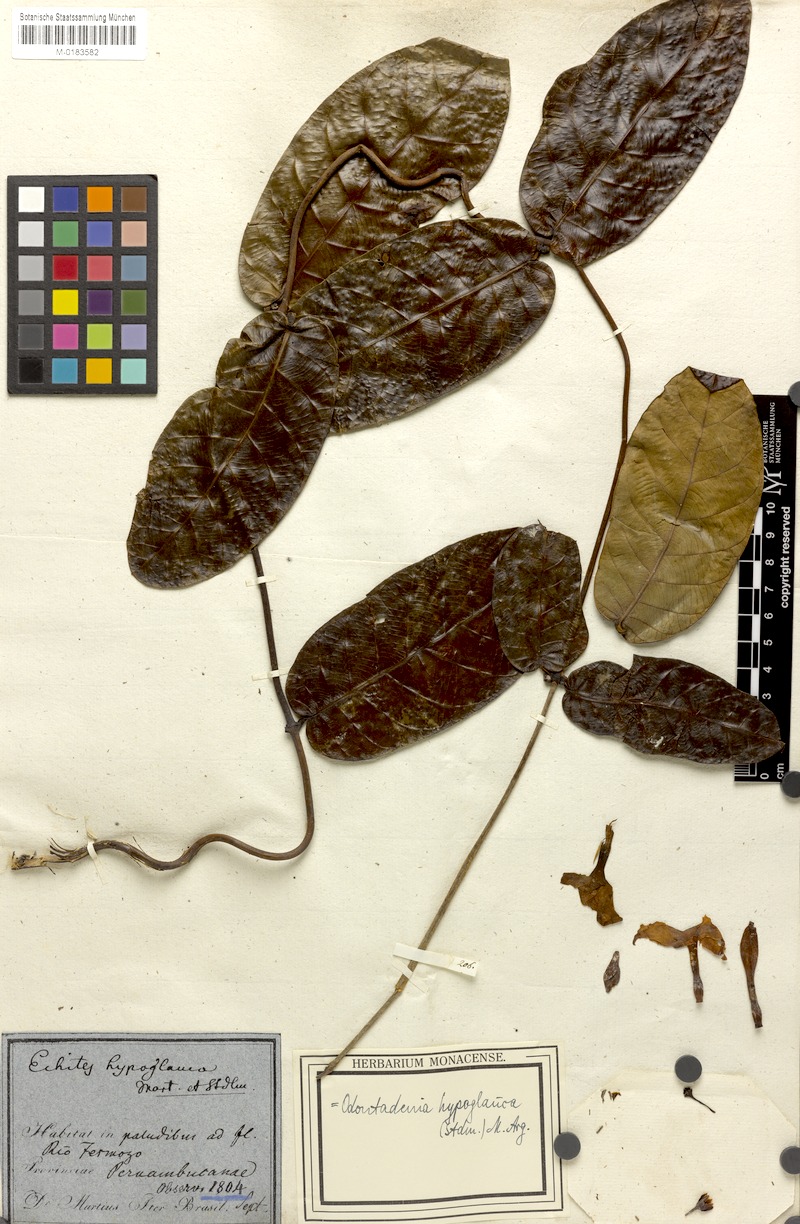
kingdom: Plantae
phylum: Tracheophyta
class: Magnoliopsida
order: Gentianales
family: Apocynaceae
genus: Odontadenia
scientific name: Odontadenia hypoglauca
